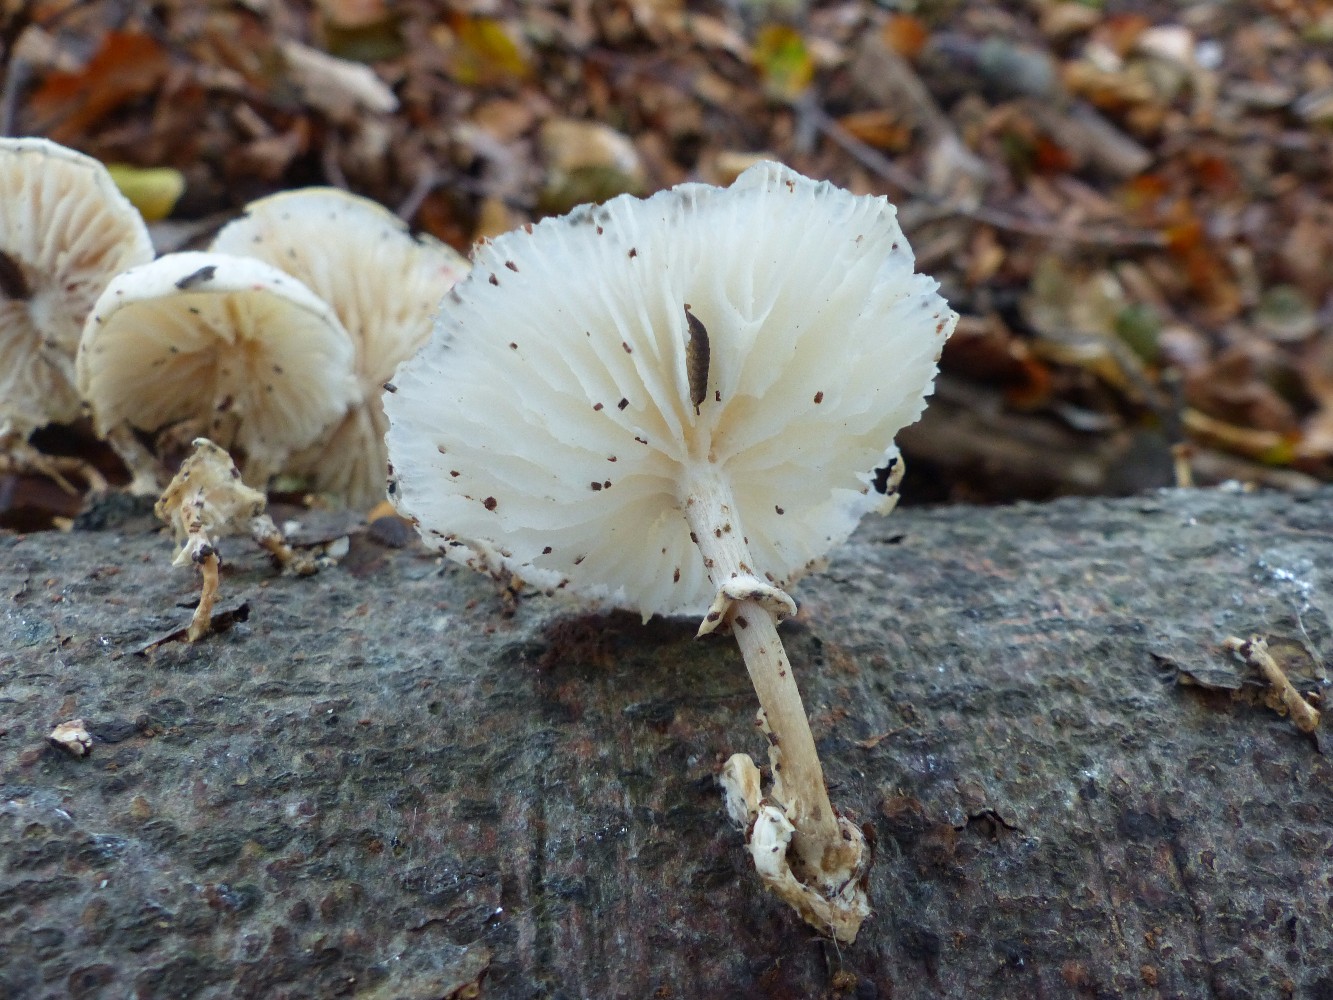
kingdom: Fungi
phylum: Basidiomycota
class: Agaricomycetes
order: Agaricales
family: Physalacriaceae
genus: Mucidula
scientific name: Mucidula mucida
